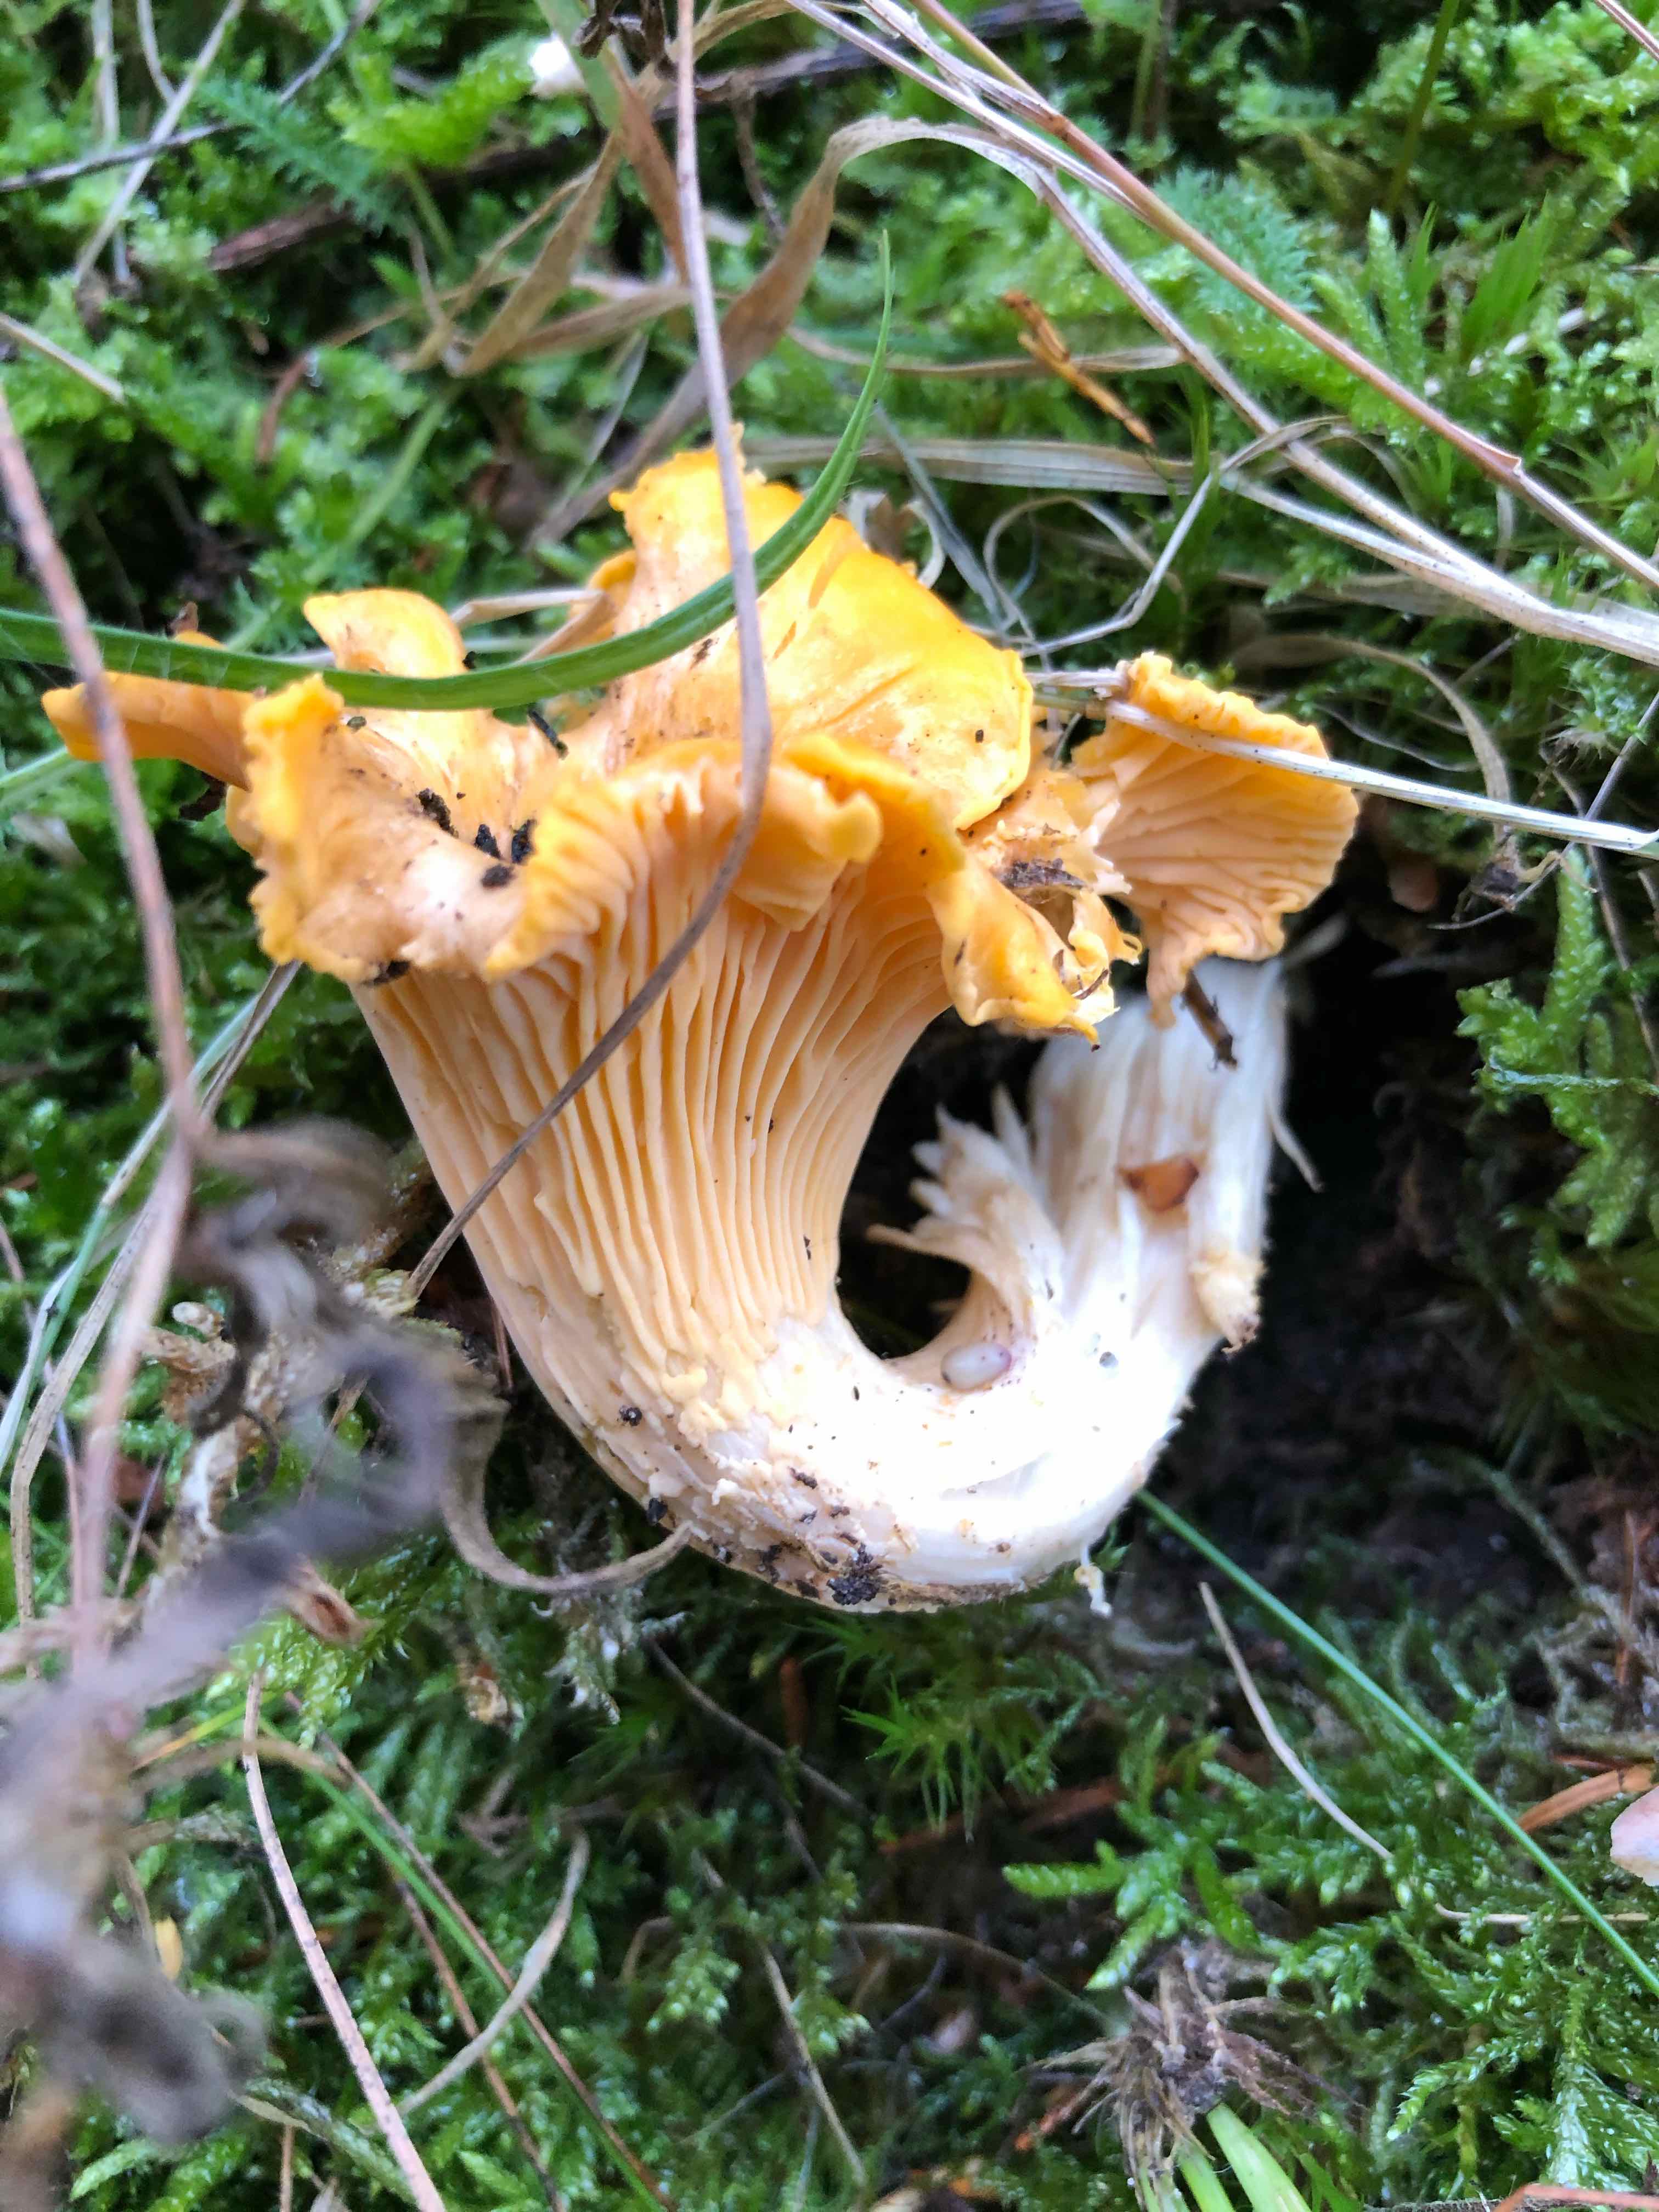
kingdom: Fungi
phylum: Basidiomycota
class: Agaricomycetes
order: Cantharellales
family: Hydnaceae
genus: Cantharellus
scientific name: Cantharellus cibarius
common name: almindelig kantarel
